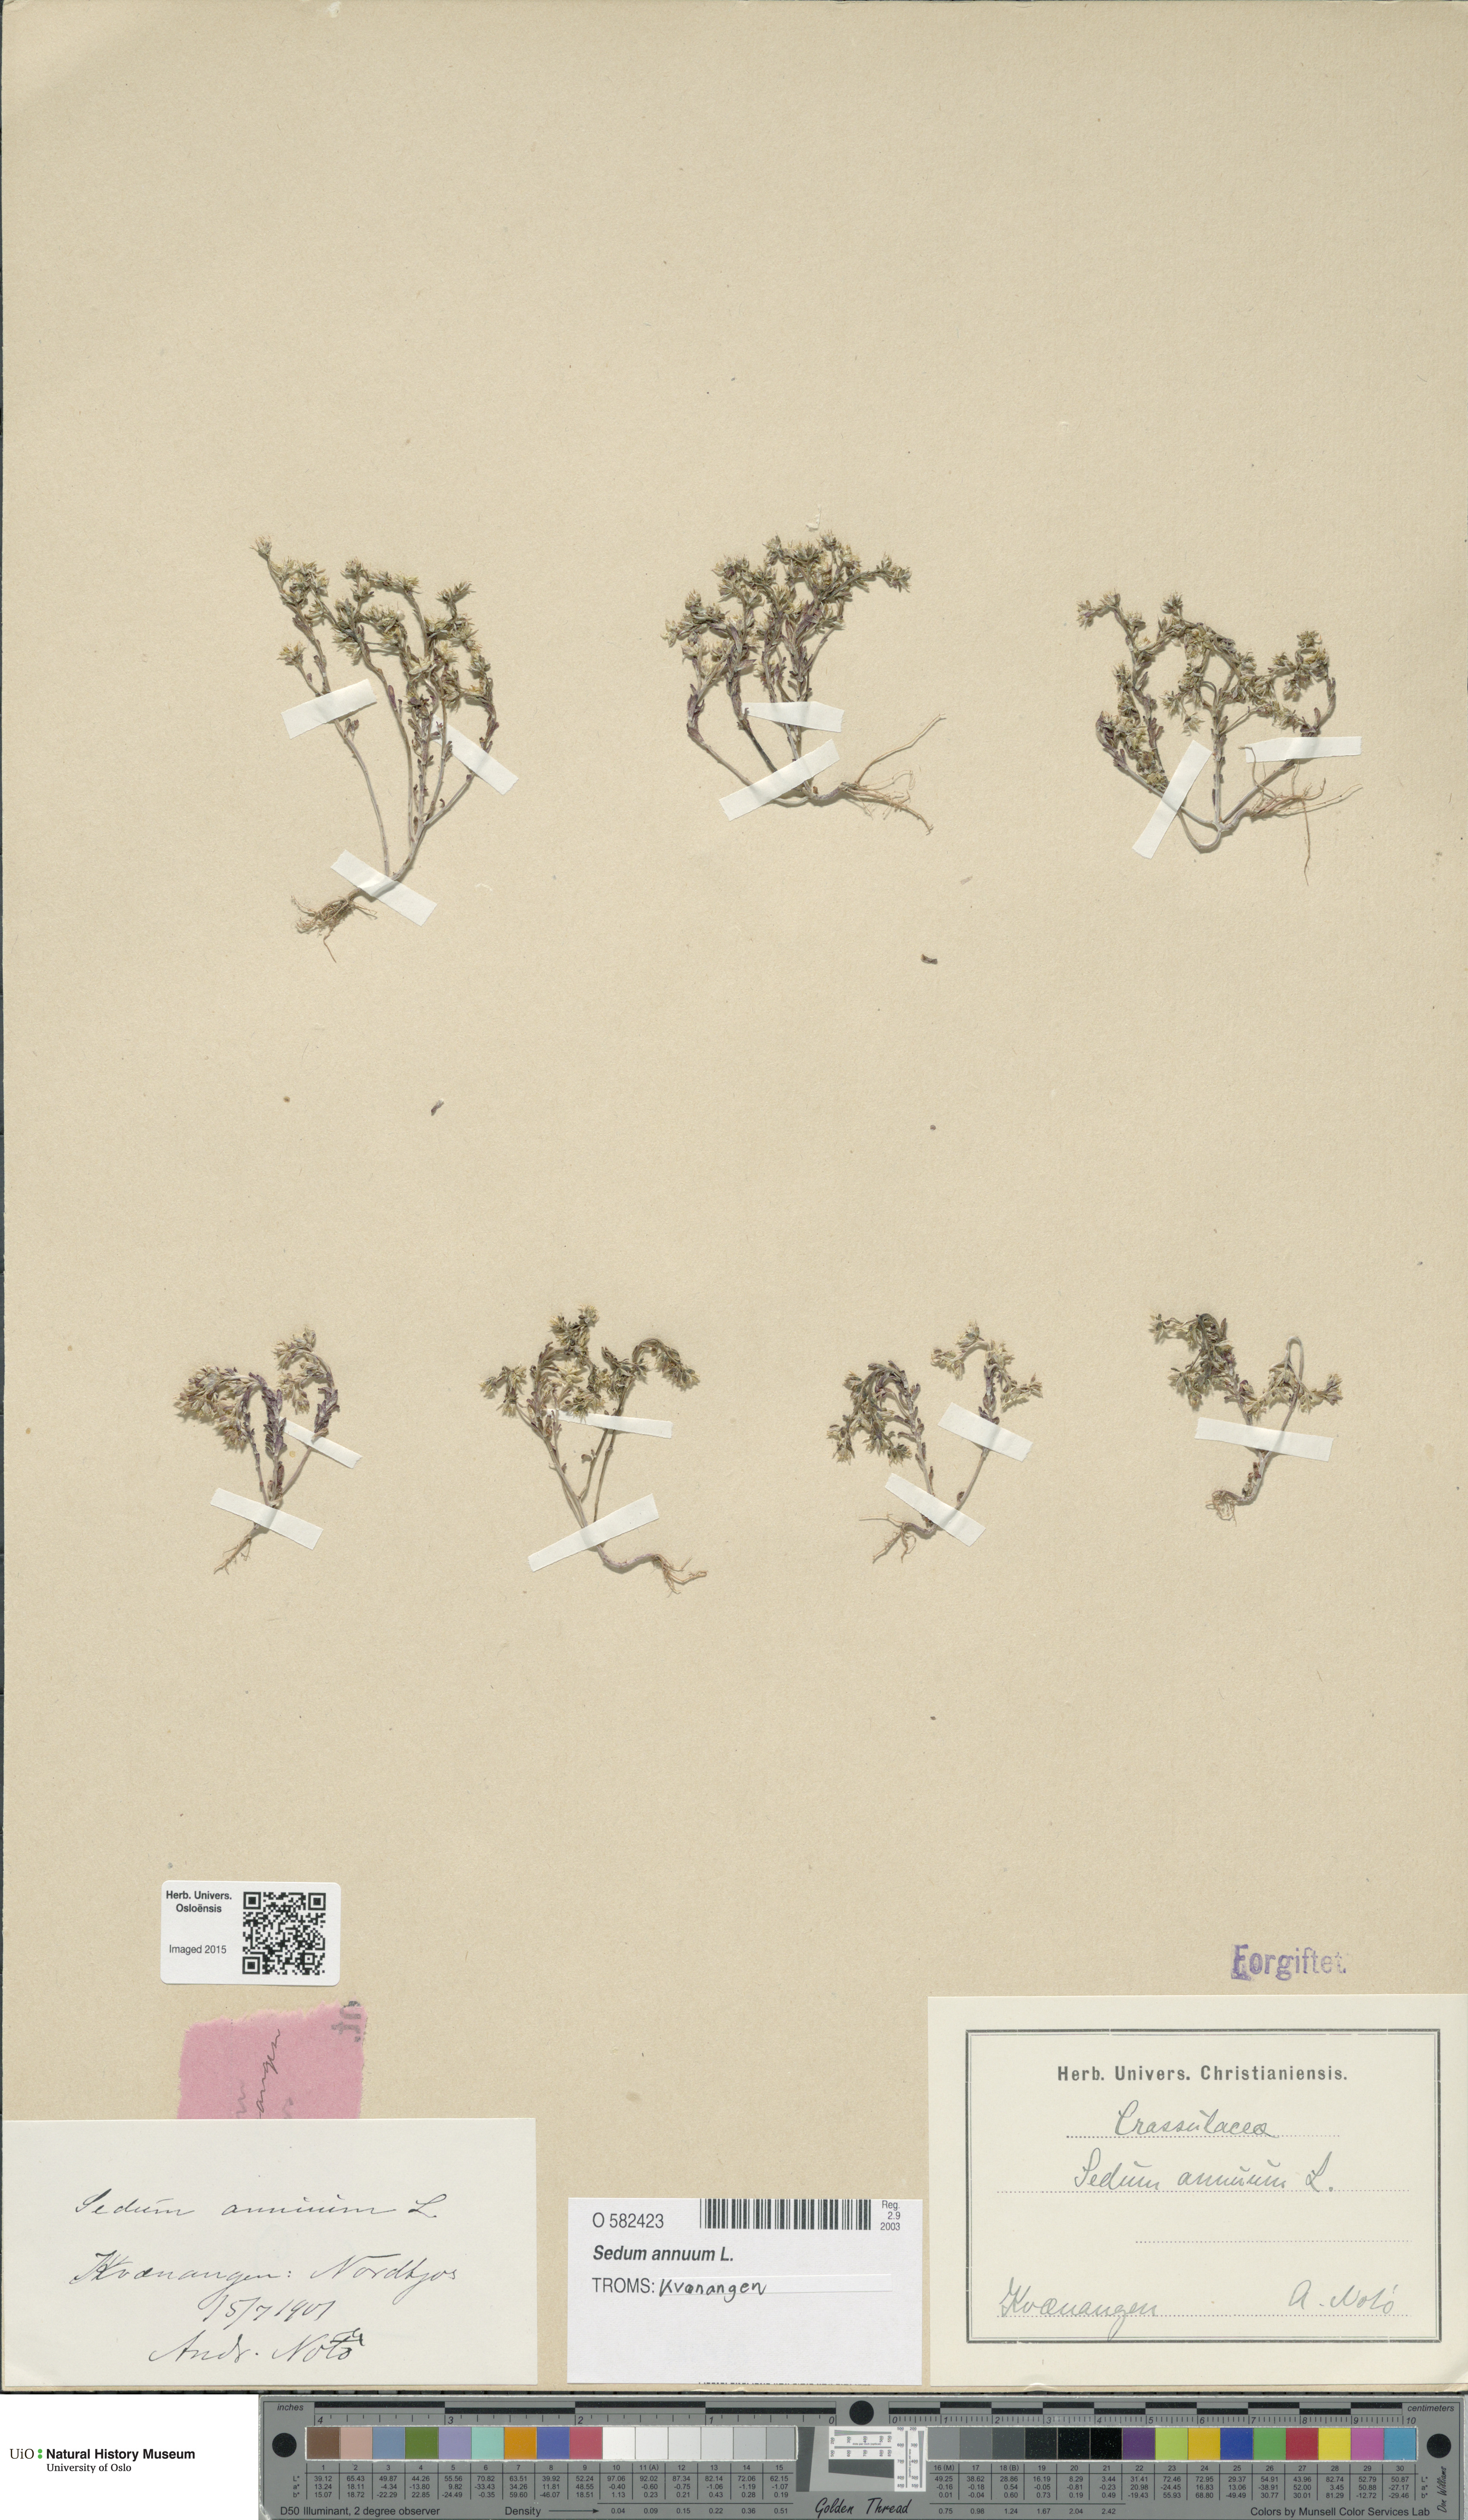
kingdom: Plantae
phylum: Tracheophyta
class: Magnoliopsida
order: Saxifragales
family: Crassulaceae
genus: Sedum
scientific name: Sedum annuum
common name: Annual stonecrop
